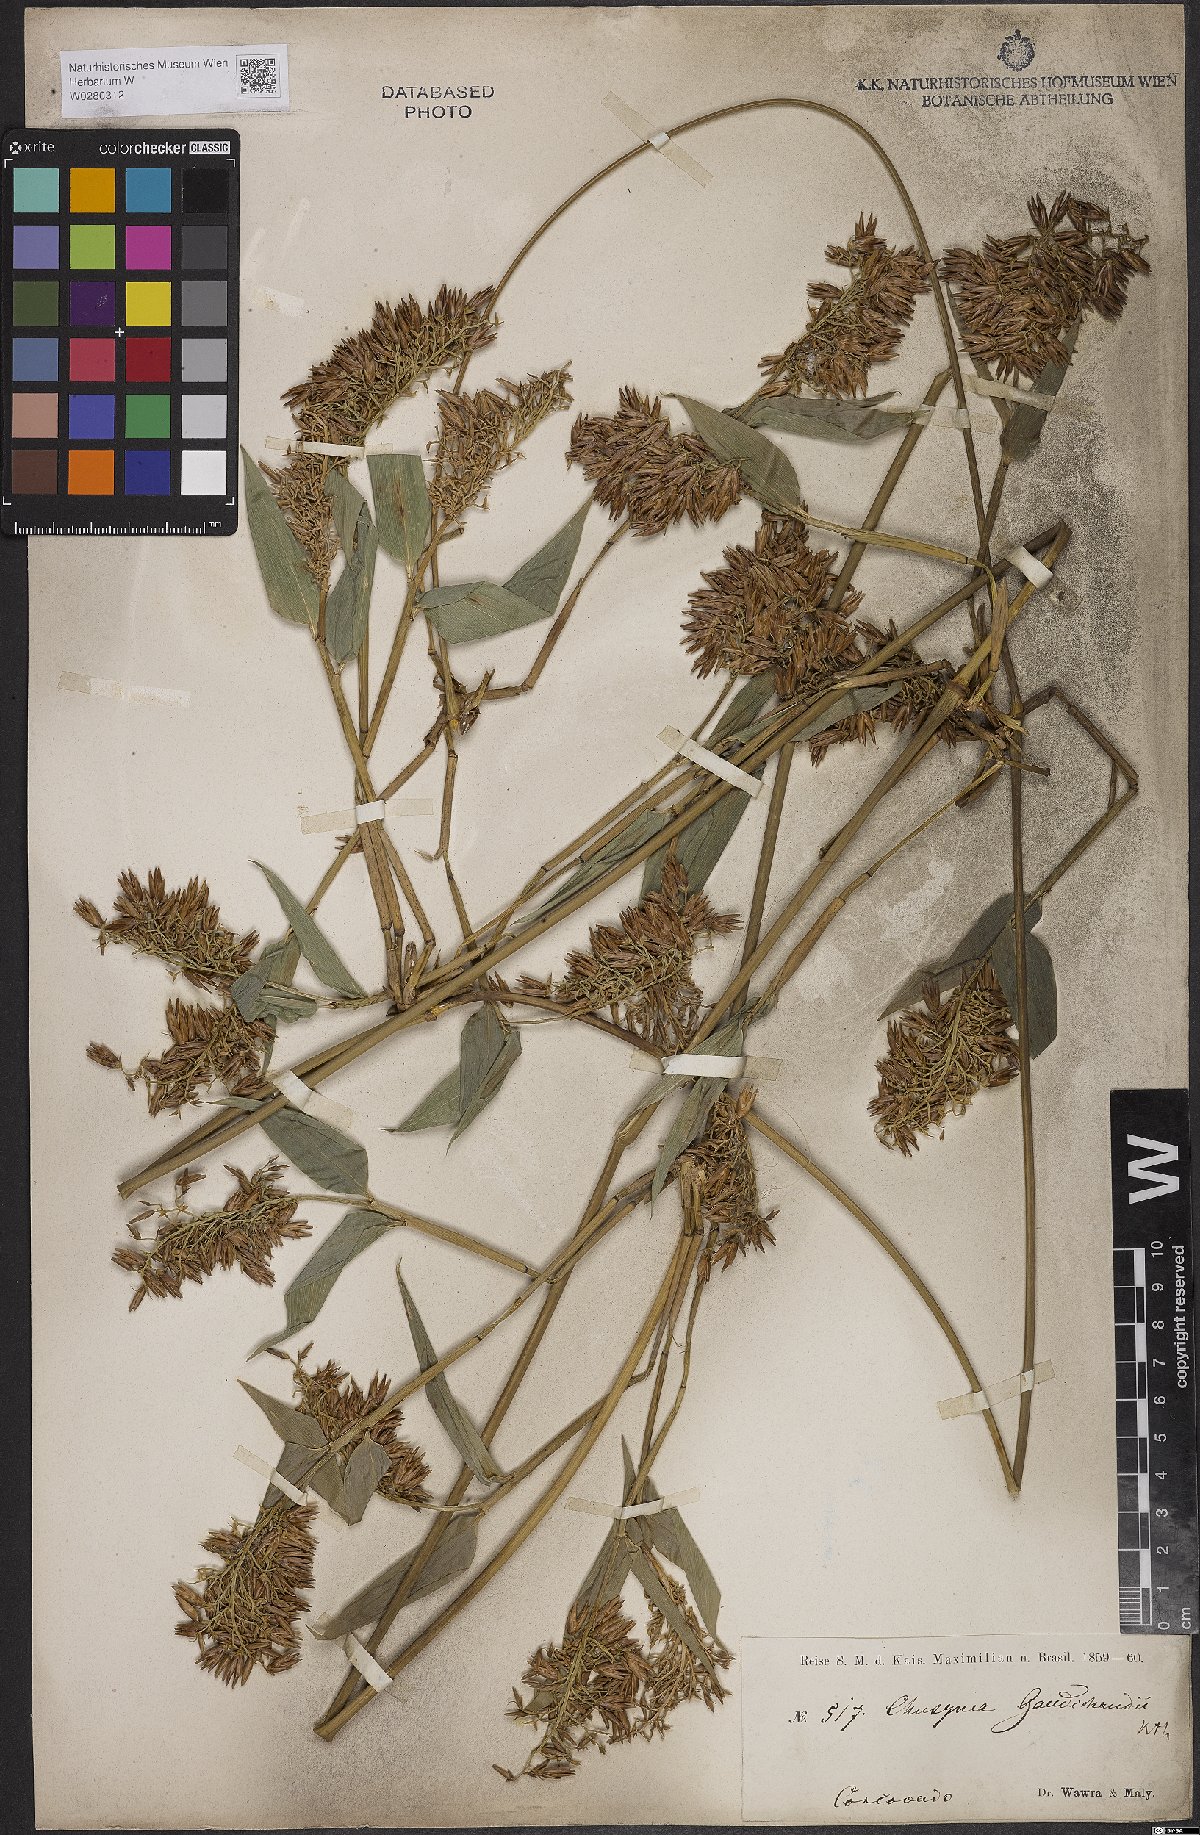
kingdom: Plantae
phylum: Tracheophyta
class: Liliopsida
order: Poales
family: Poaceae
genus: Chusquea
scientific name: Chusquea bambusoides
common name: Brazil scrambling bamboo
